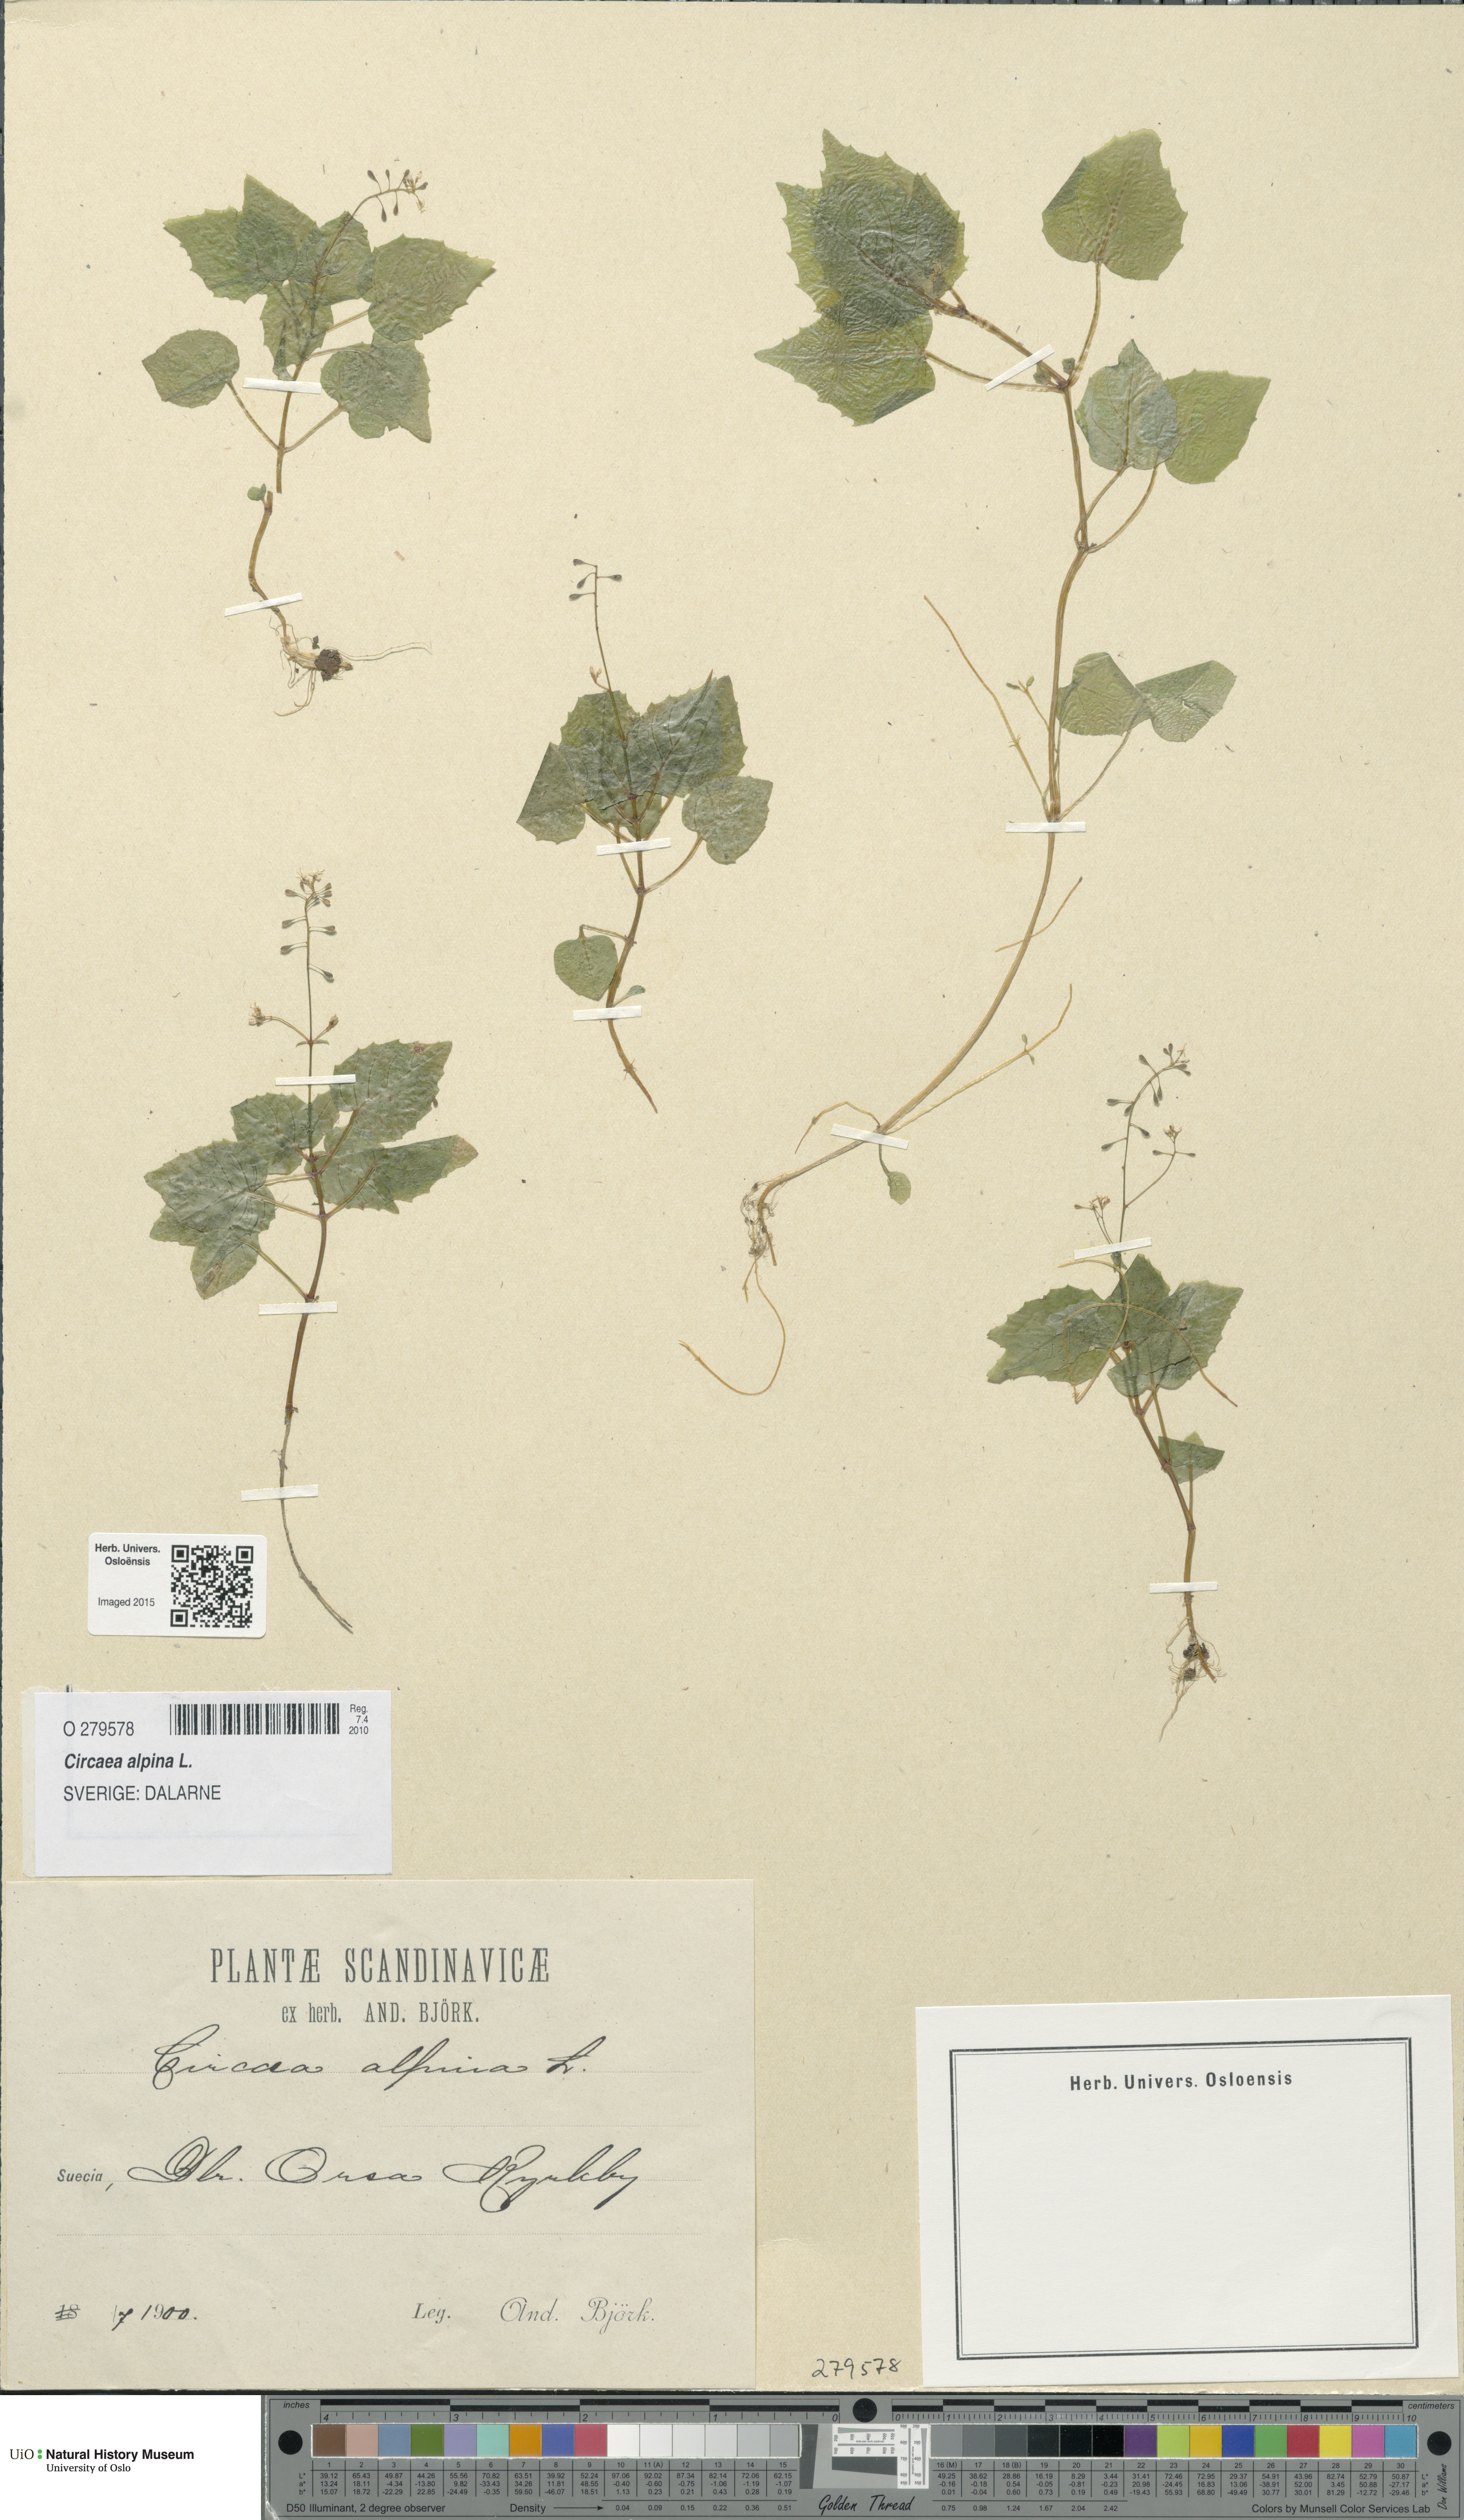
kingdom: Plantae
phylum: Tracheophyta
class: Magnoliopsida
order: Myrtales
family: Onagraceae
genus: Circaea
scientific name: Circaea alpina
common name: Alpine enchanter's-nightshade
